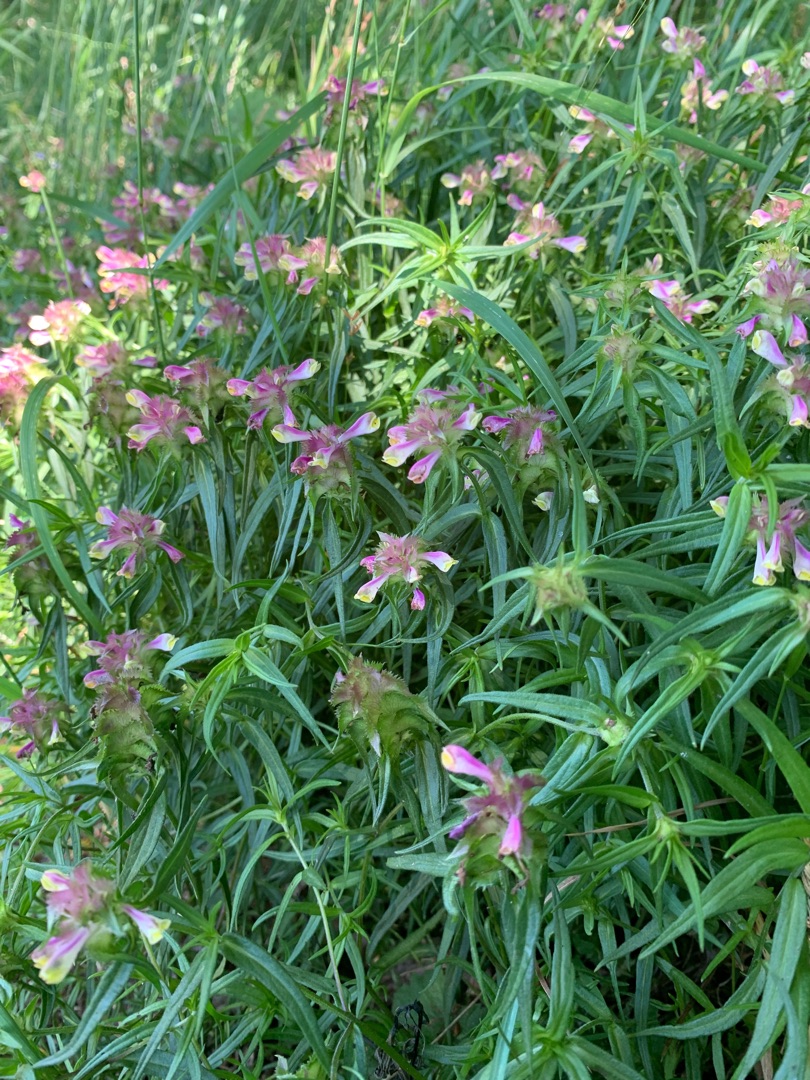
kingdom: Plantae
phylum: Tracheophyta
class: Magnoliopsida
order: Lamiales
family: Orobanchaceae
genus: Melampyrum
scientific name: Melampyrum cristatum
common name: Kantet kohvede
